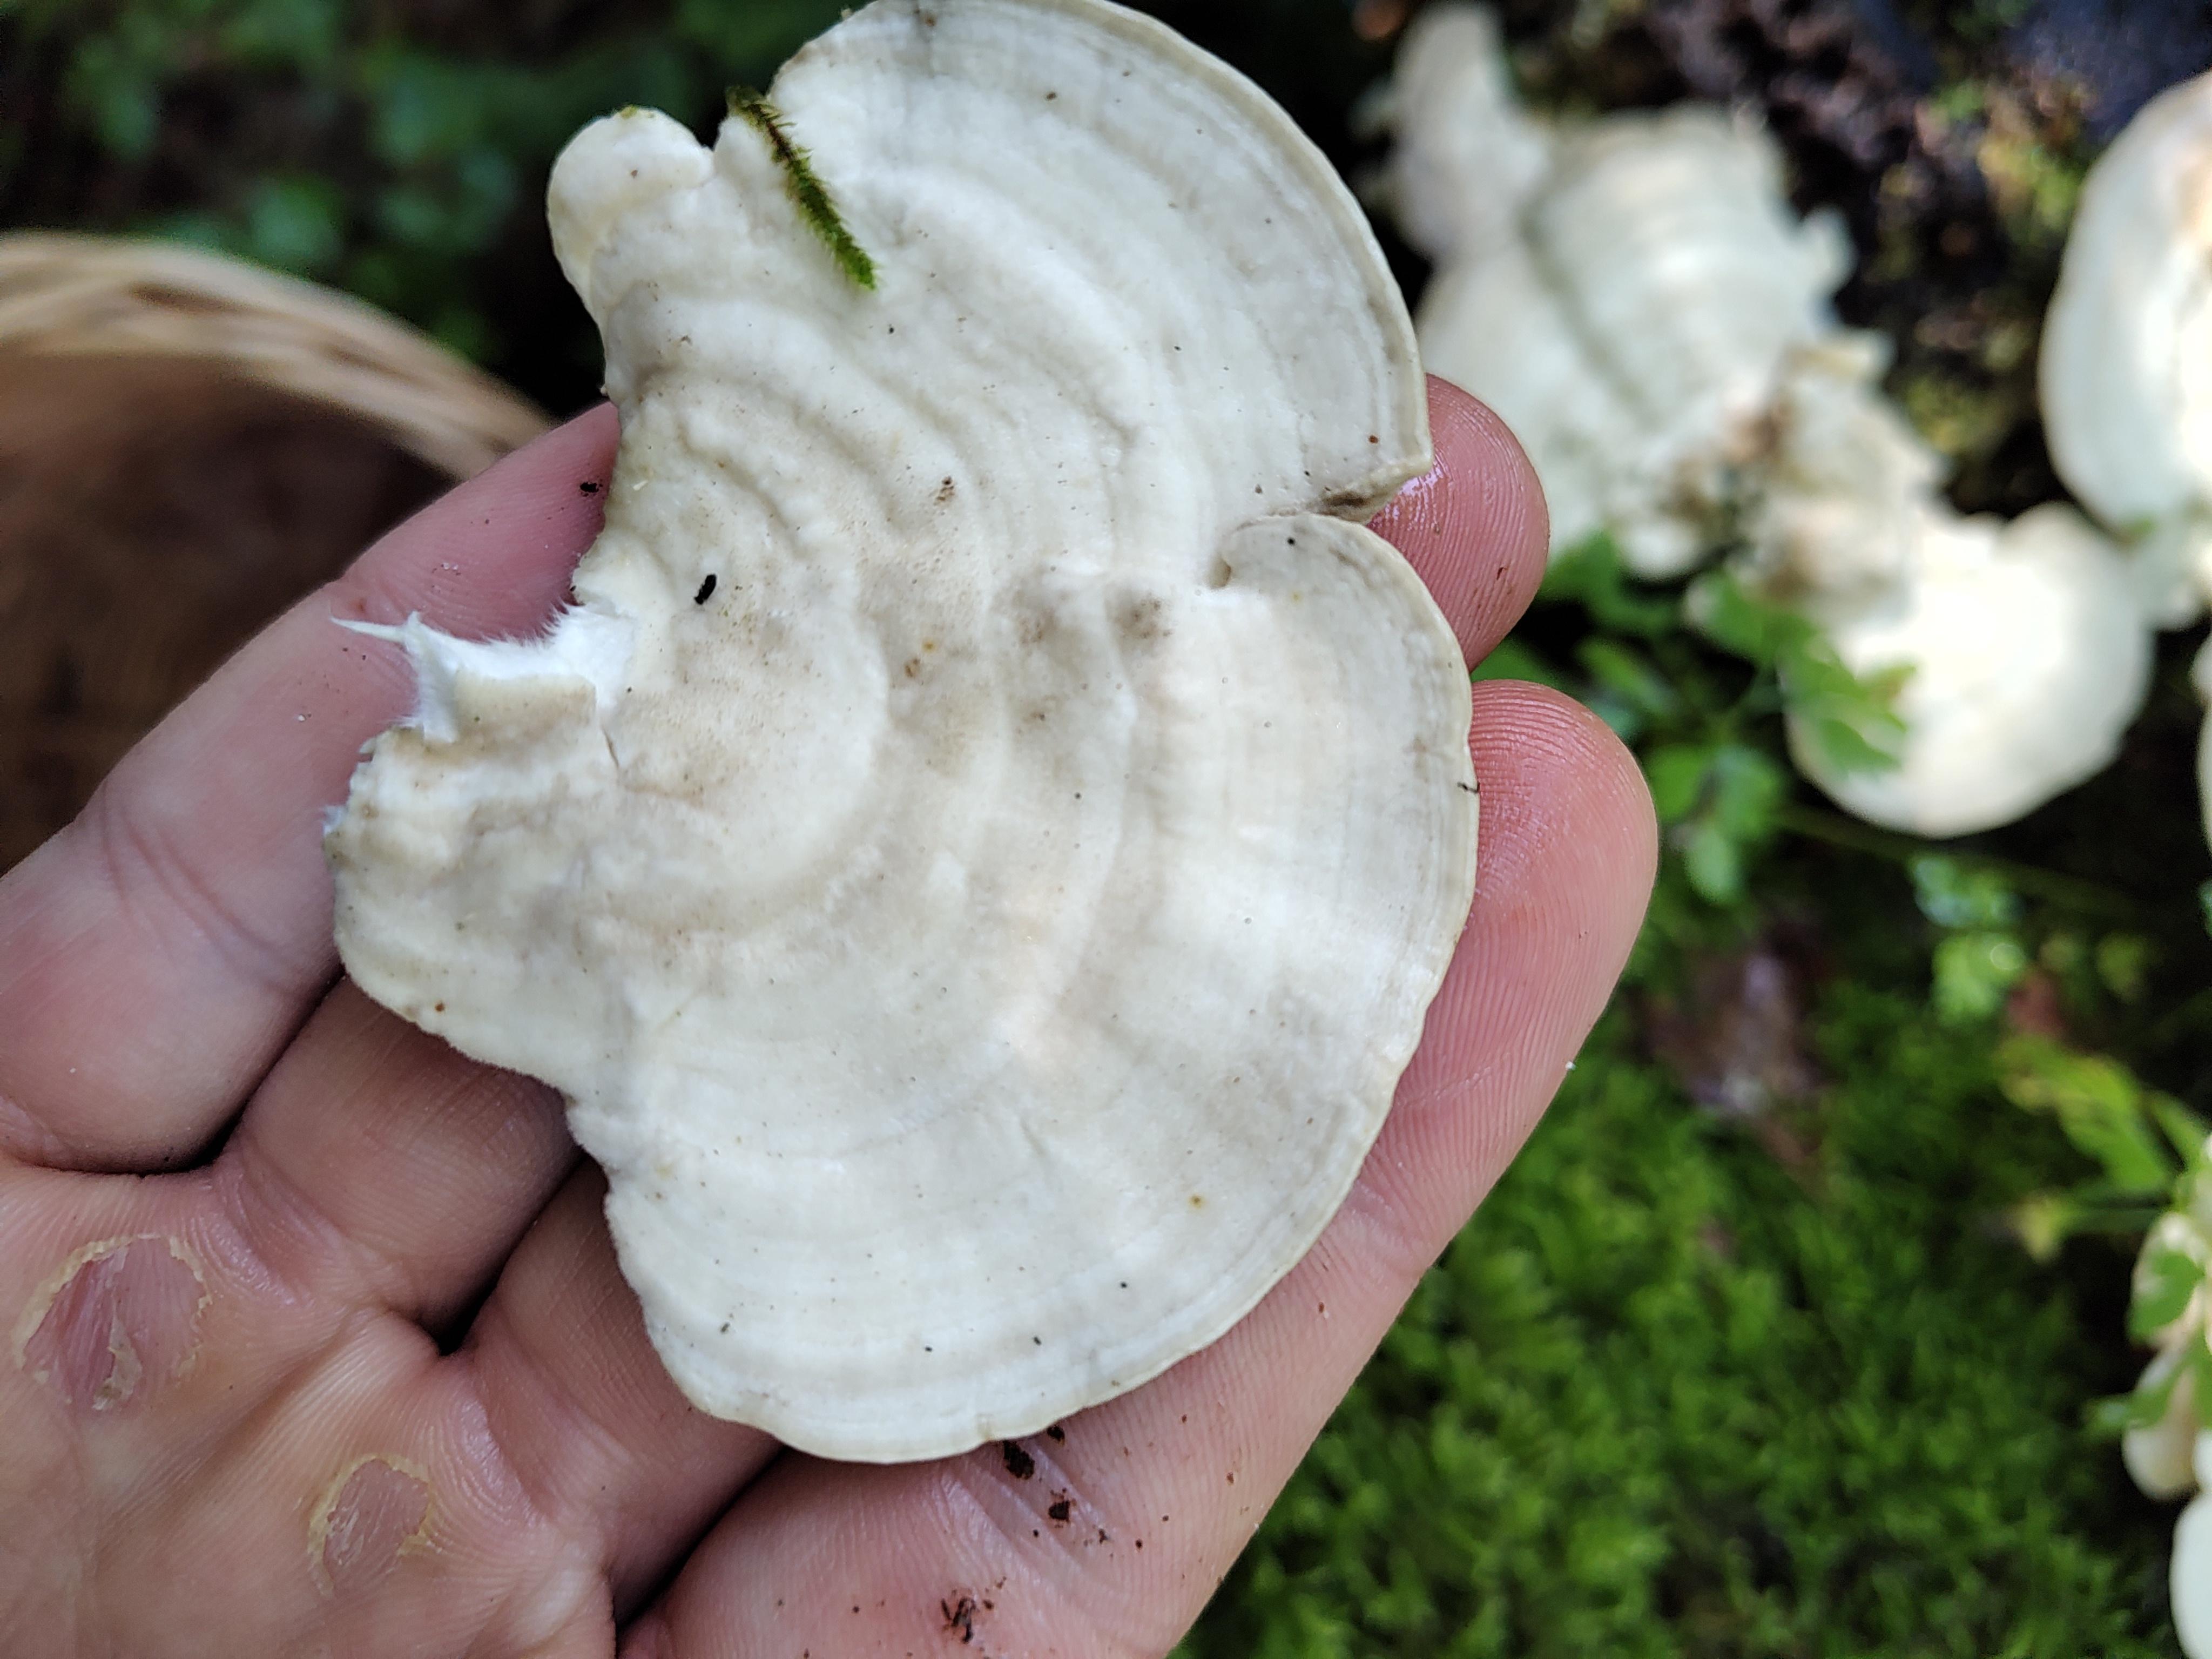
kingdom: Fungi
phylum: Basidiomycota
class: Agaricomycetes
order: Polyporales
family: Polyporaceae
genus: Trametes
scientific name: Trametes gibbosa
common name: puklet læderporesvamp
